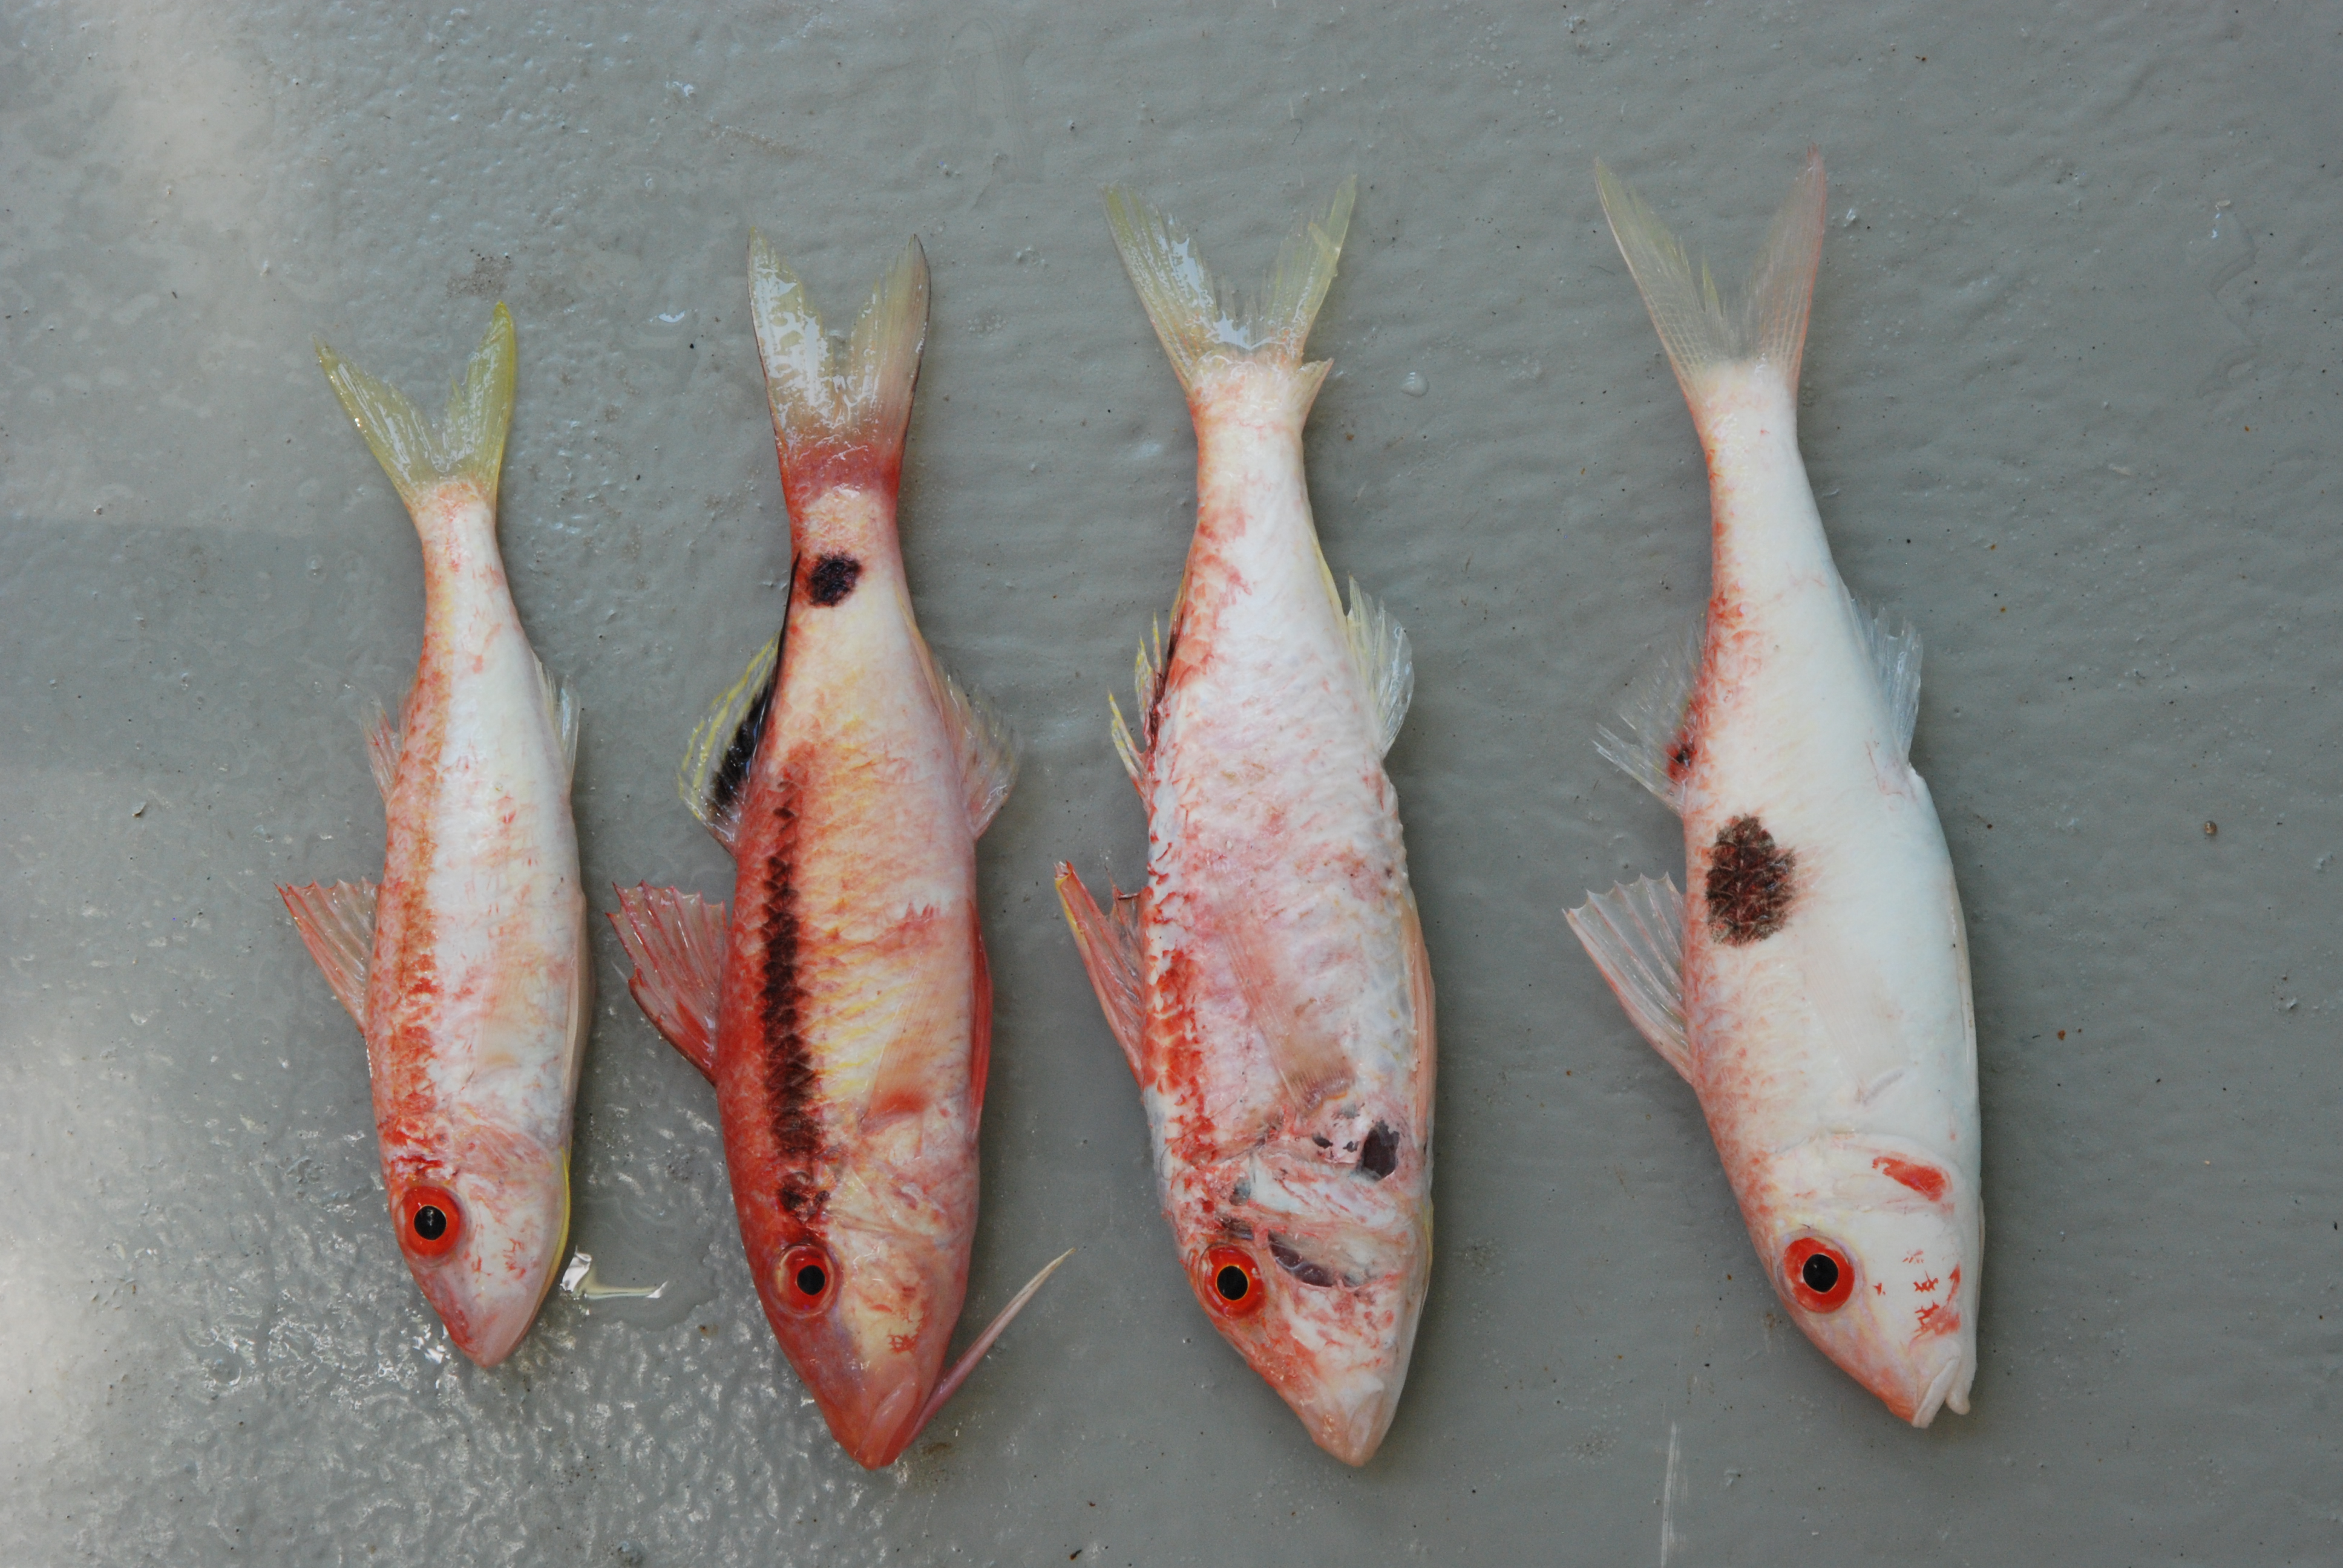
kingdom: Animalia
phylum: Chordata
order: Perciformes
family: Mullidae
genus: Parupeneus
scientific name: Parupeneus procerigena
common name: Deep-cheek goatfish
